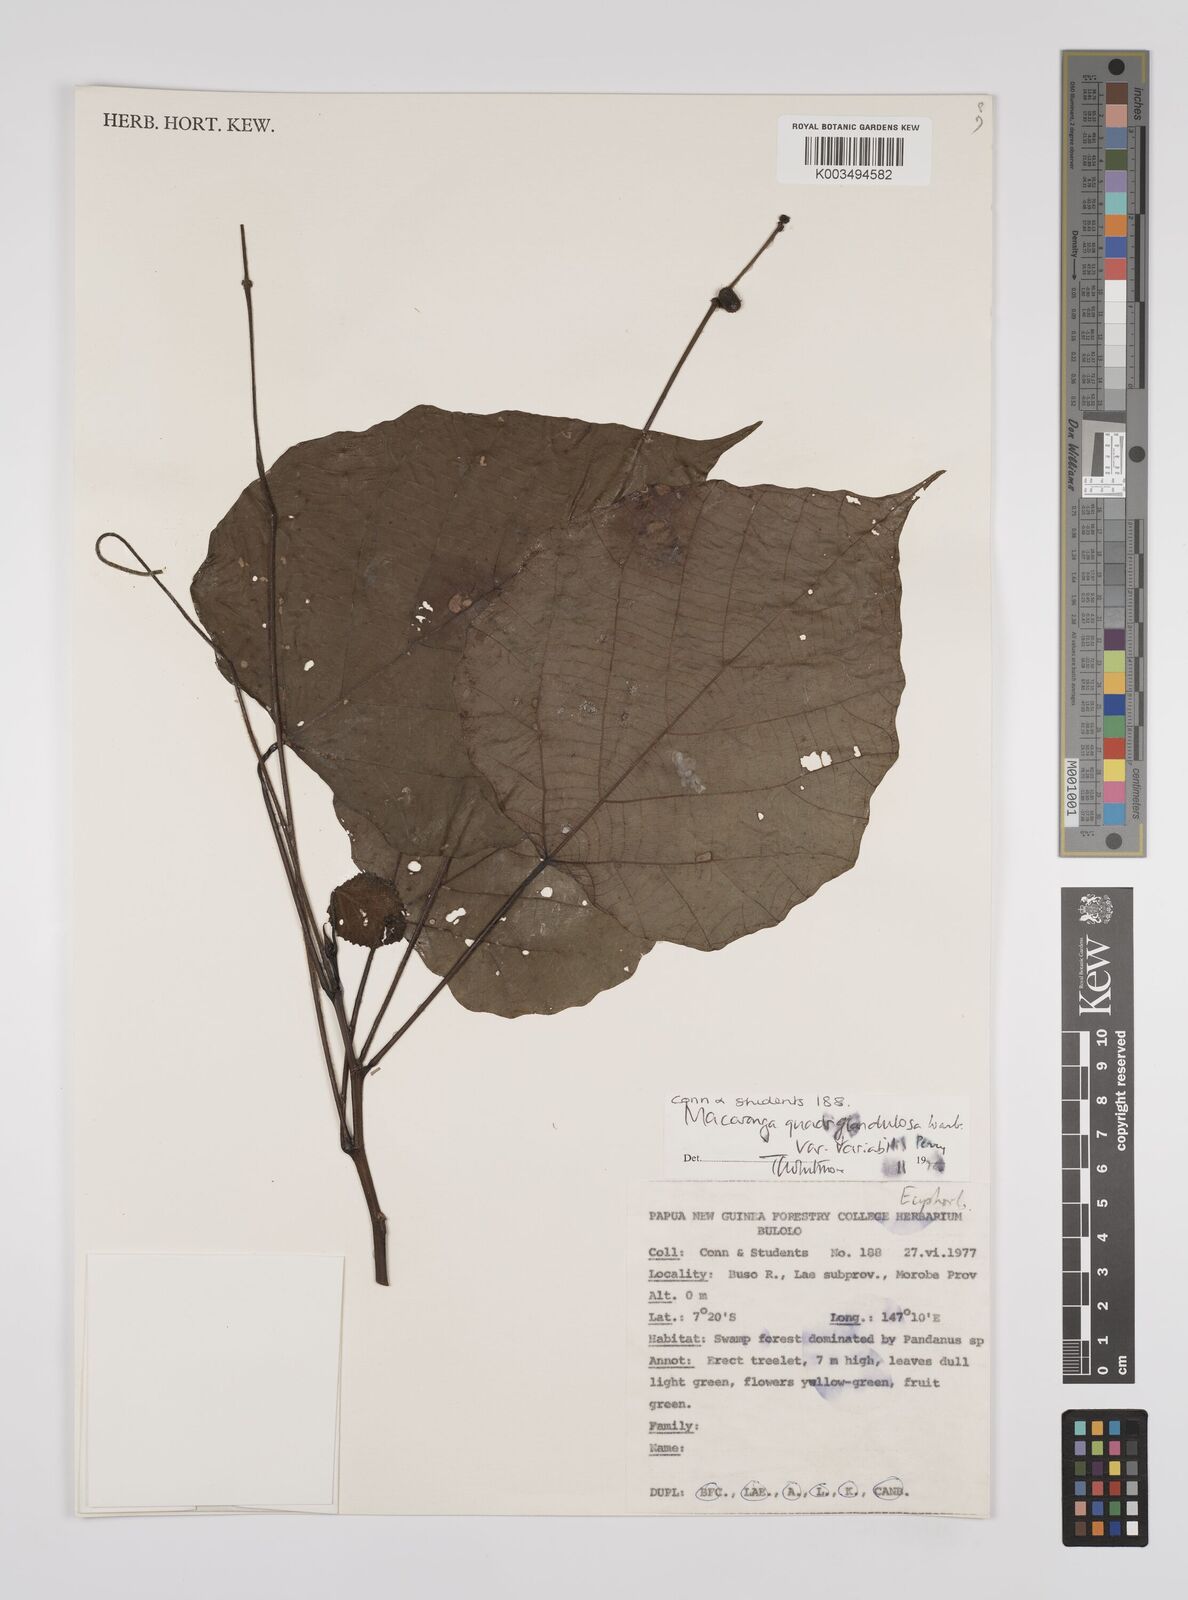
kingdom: Plantae
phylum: Tracheophyta
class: Magnoliopsida
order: Malpighiales
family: Euphorbiaceae
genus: Macaranga
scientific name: Macaranga quadriglandulosa
